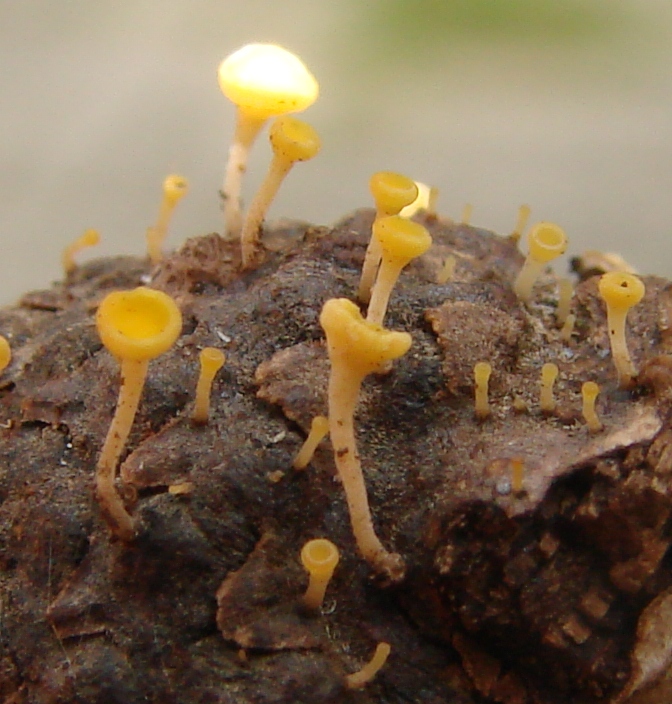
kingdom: Fungi
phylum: Ascomycota
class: Leotiomycetes
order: Helotiales
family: Helotiaceae
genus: Hymenoscyphus
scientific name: Hymenoscyphus fructigenus
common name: frugt-stilkskive
